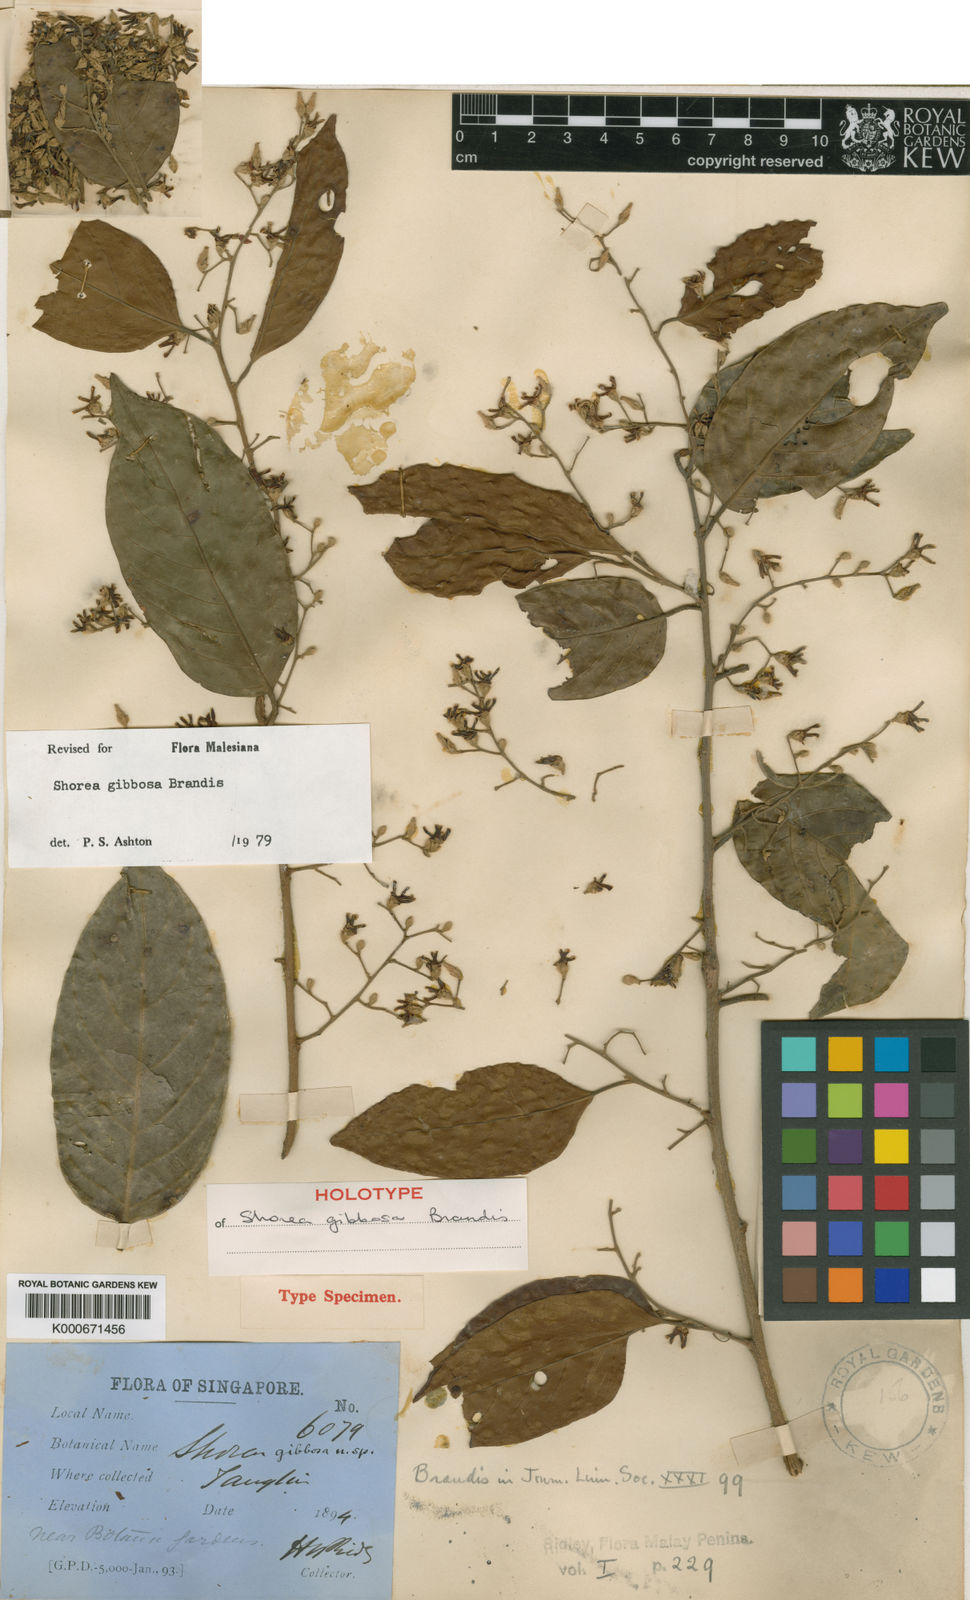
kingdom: Plantae
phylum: Tracheophyta
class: Magnoliopsida
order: Malvales
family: Dipterocarpaceae
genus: Shorea
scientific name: Shorea gibbosa
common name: Yellow meranti
